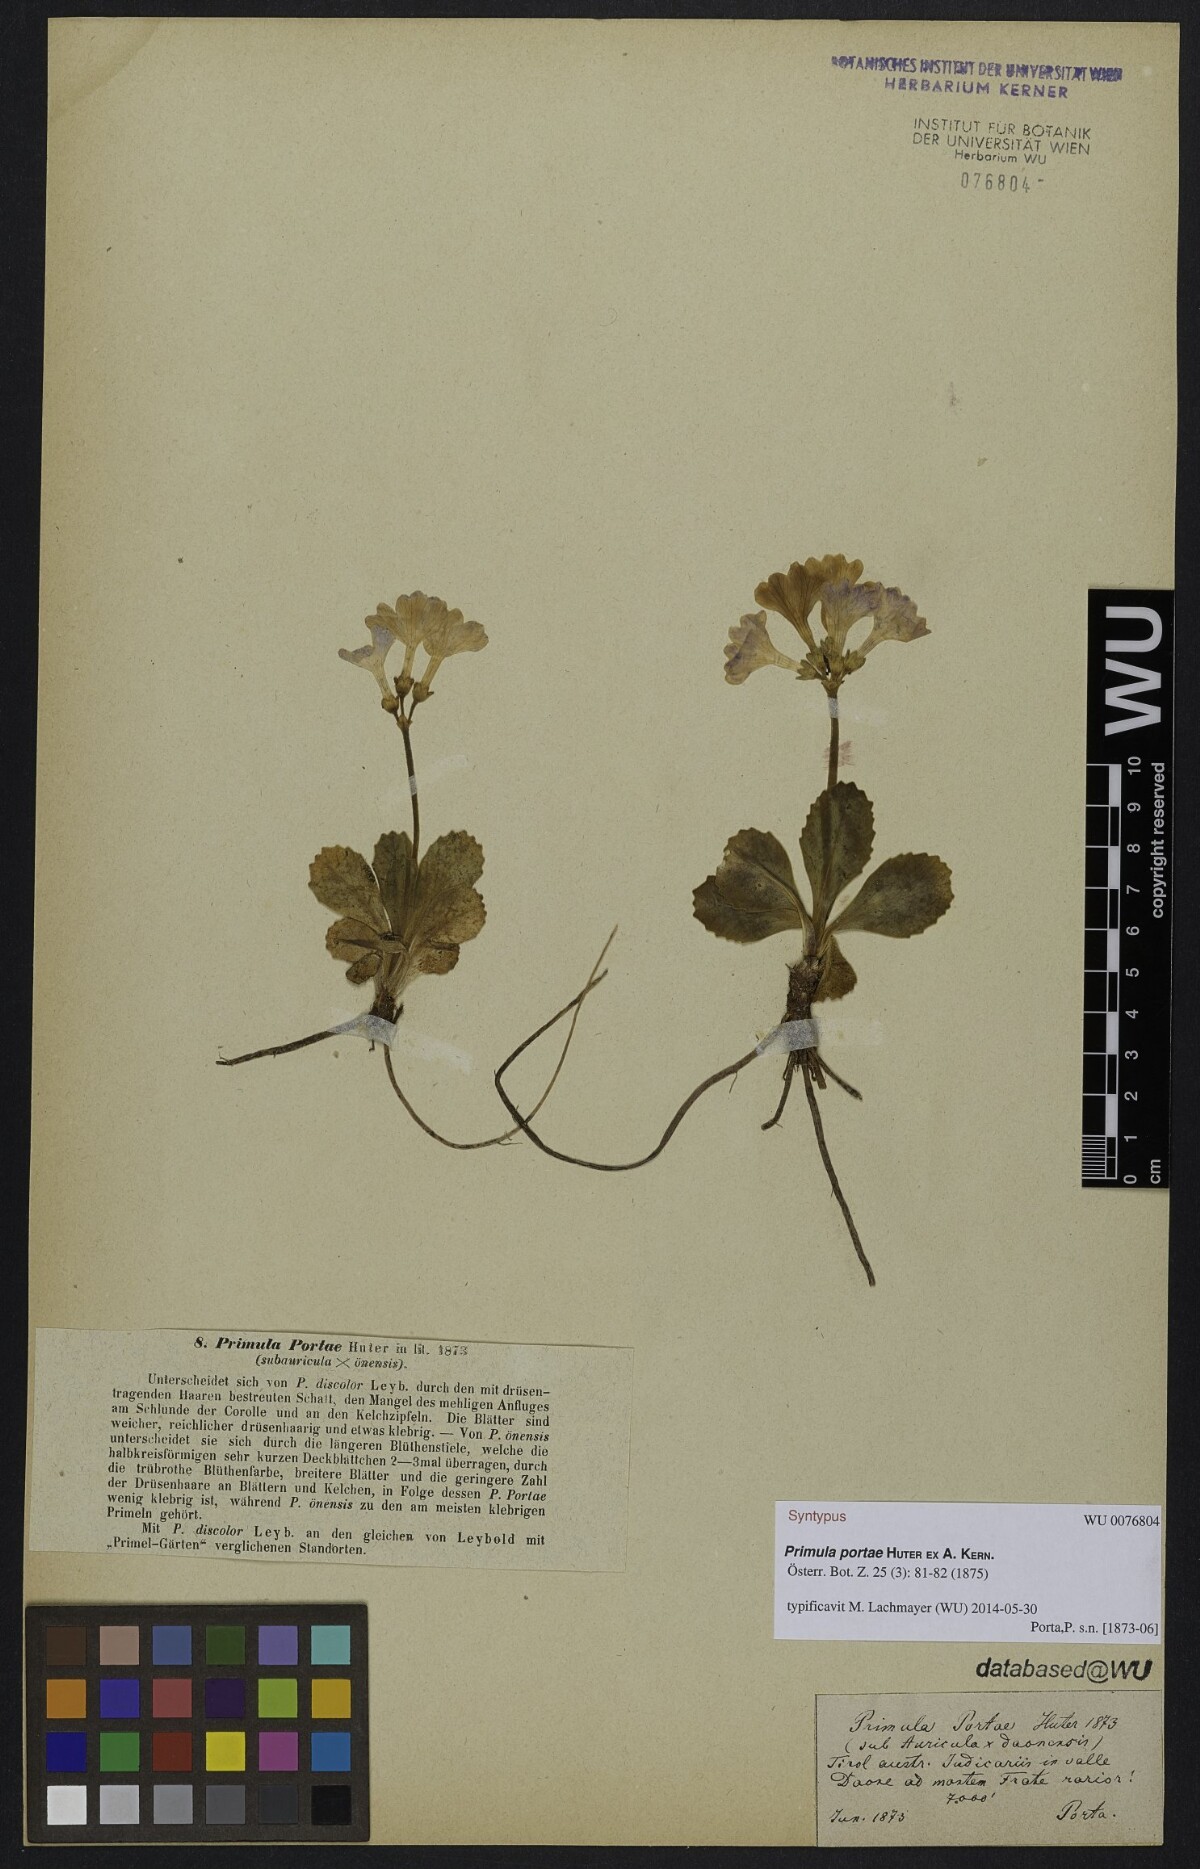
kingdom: Plantae
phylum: Tracheophyta
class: Magnoliopsida
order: Ericales
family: Primulaceae
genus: Primula
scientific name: Primula discolor
